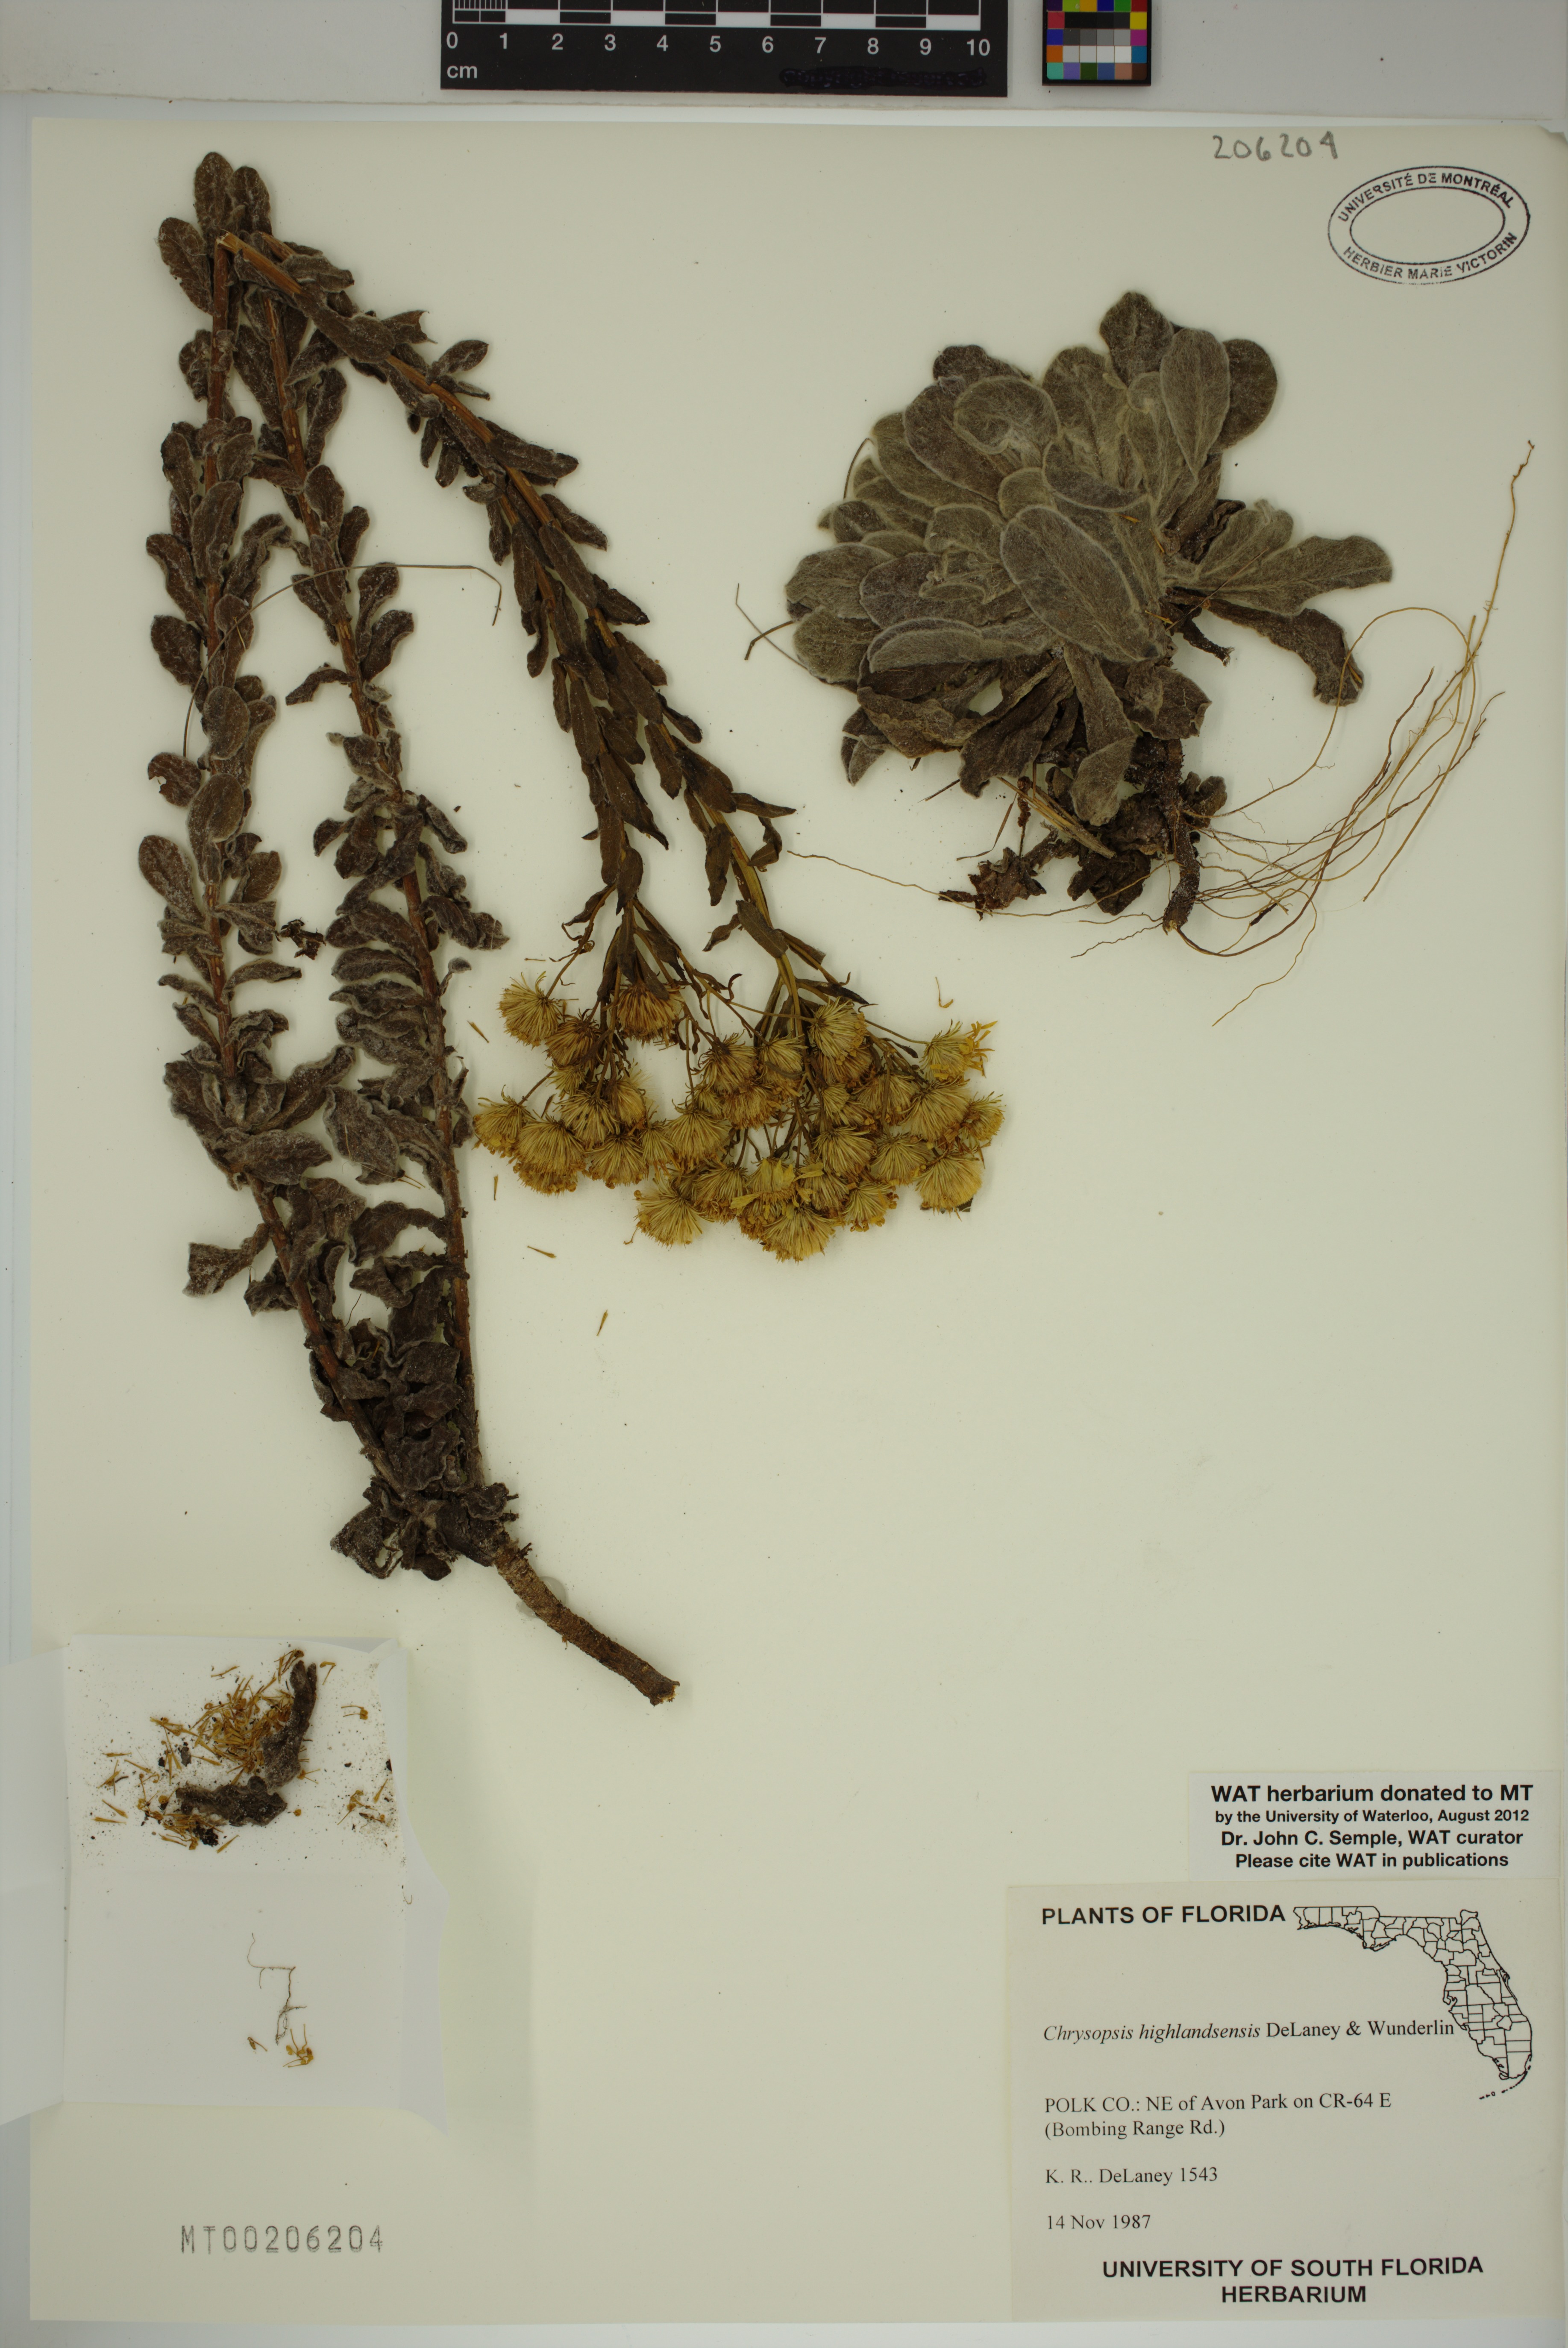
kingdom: Plantae
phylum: Tracheophyta
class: Magnoliopsida
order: Asterales
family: Asteraceae
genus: Chrysopsis
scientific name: Chrysopsis floridana
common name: Florida golden-aster
